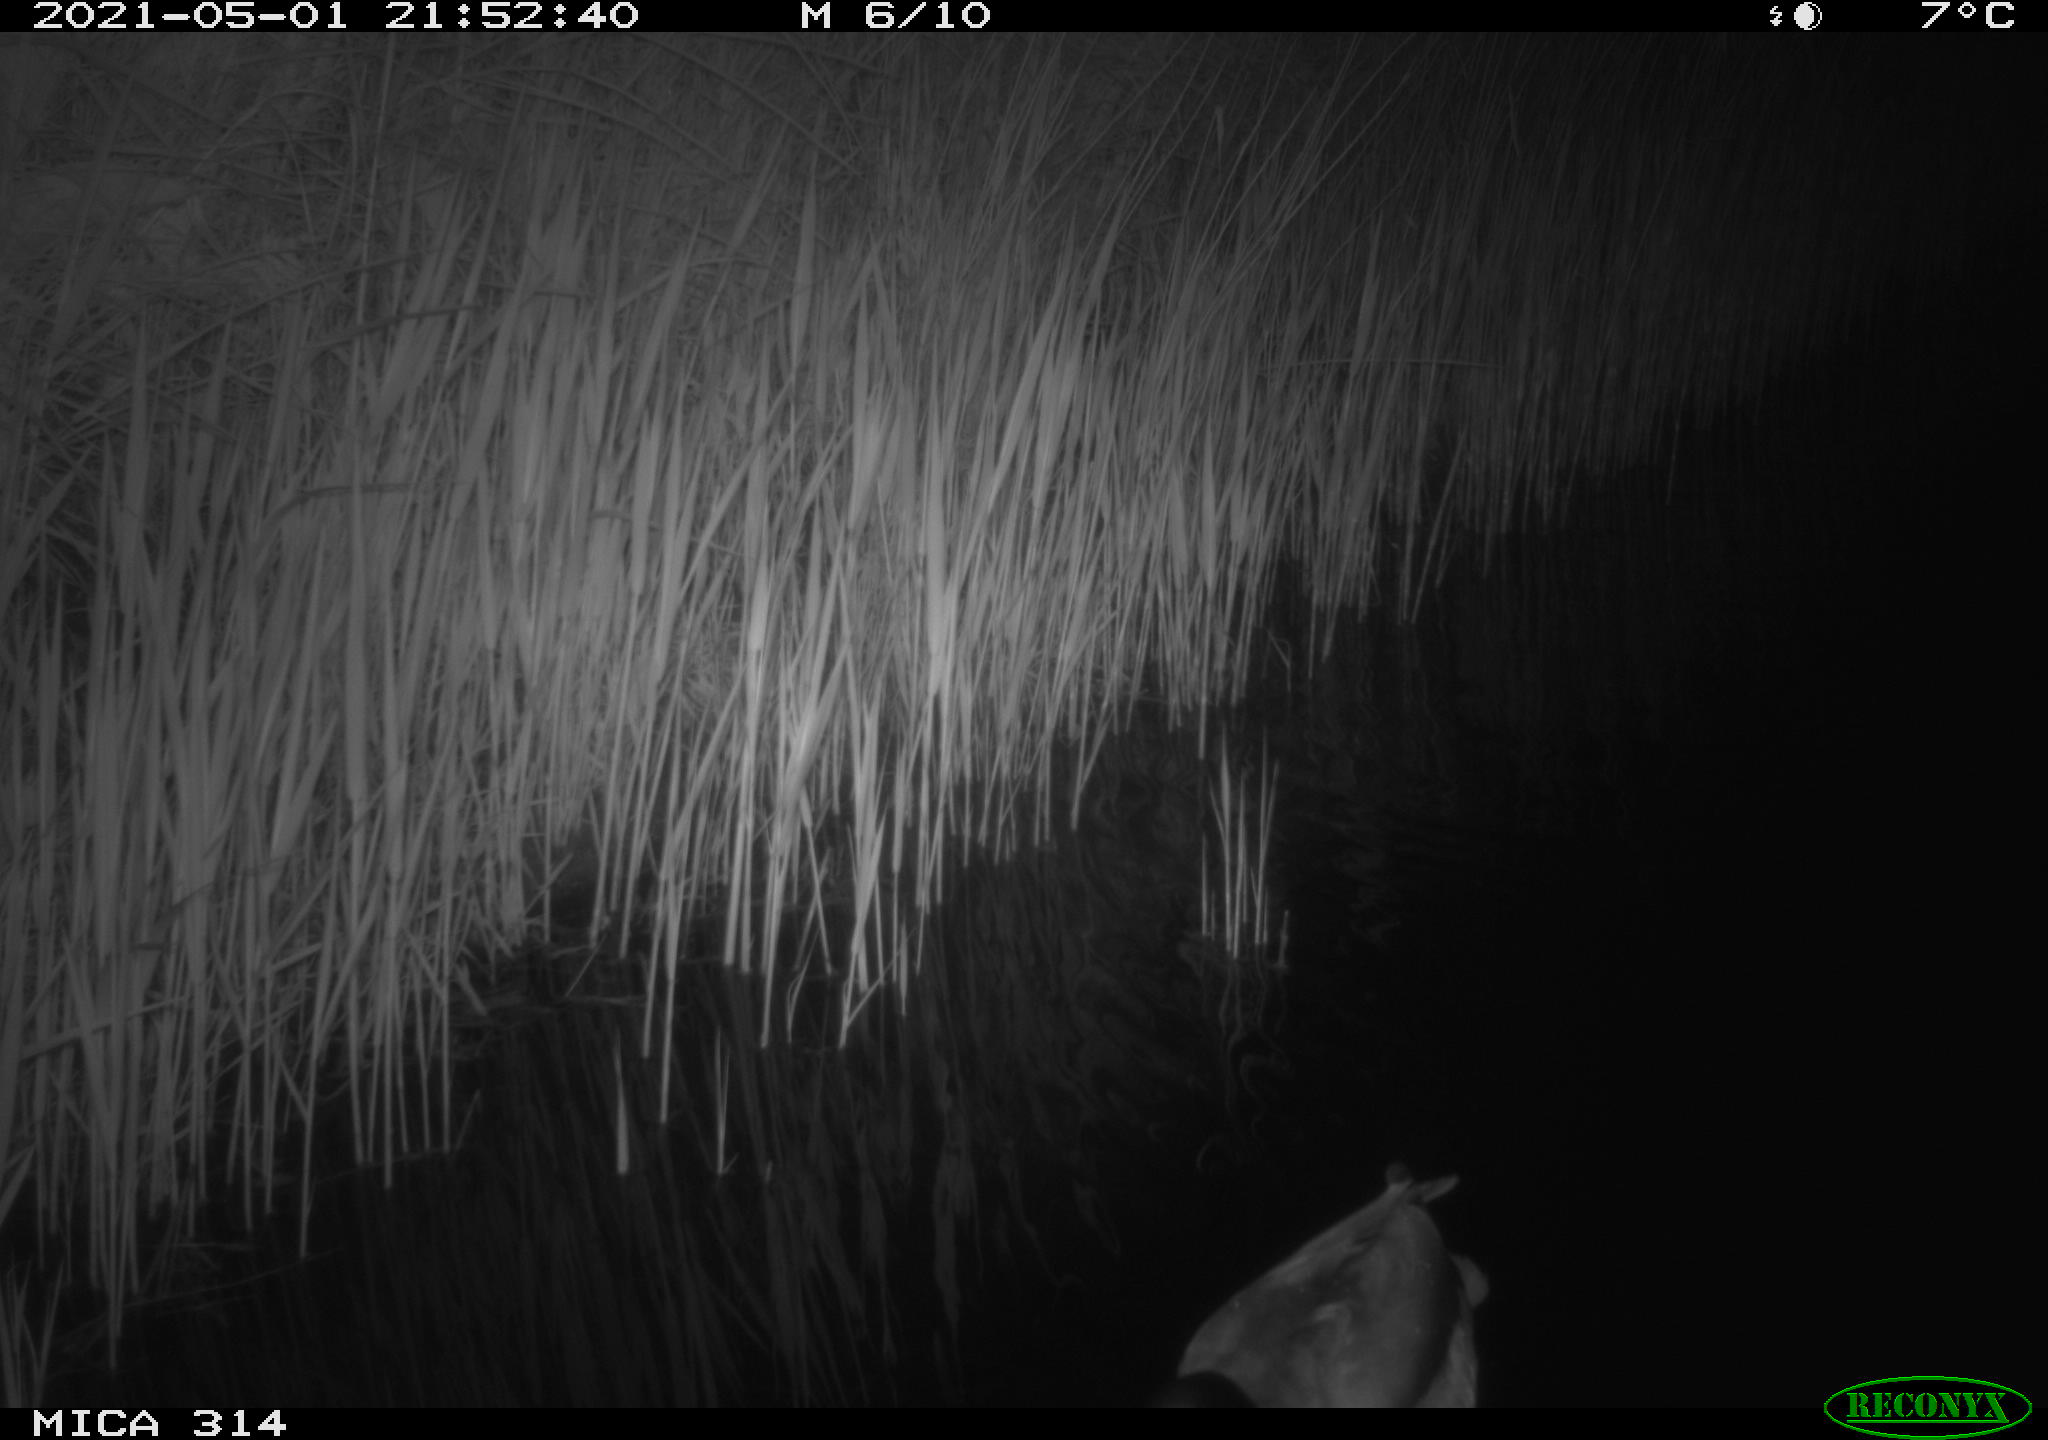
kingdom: Animalia
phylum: Chordata
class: Aves
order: Anseriformes
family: Anatidae
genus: Anas
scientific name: Anas platyrhynchos
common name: Mallard
